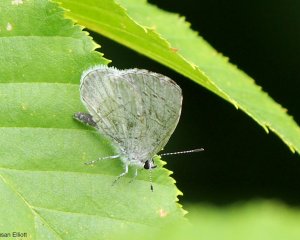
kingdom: Animalia
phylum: Arthropoda
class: Insecta
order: Lepidoptera
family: Lycaenidae
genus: Celastrina
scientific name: Celastrina
